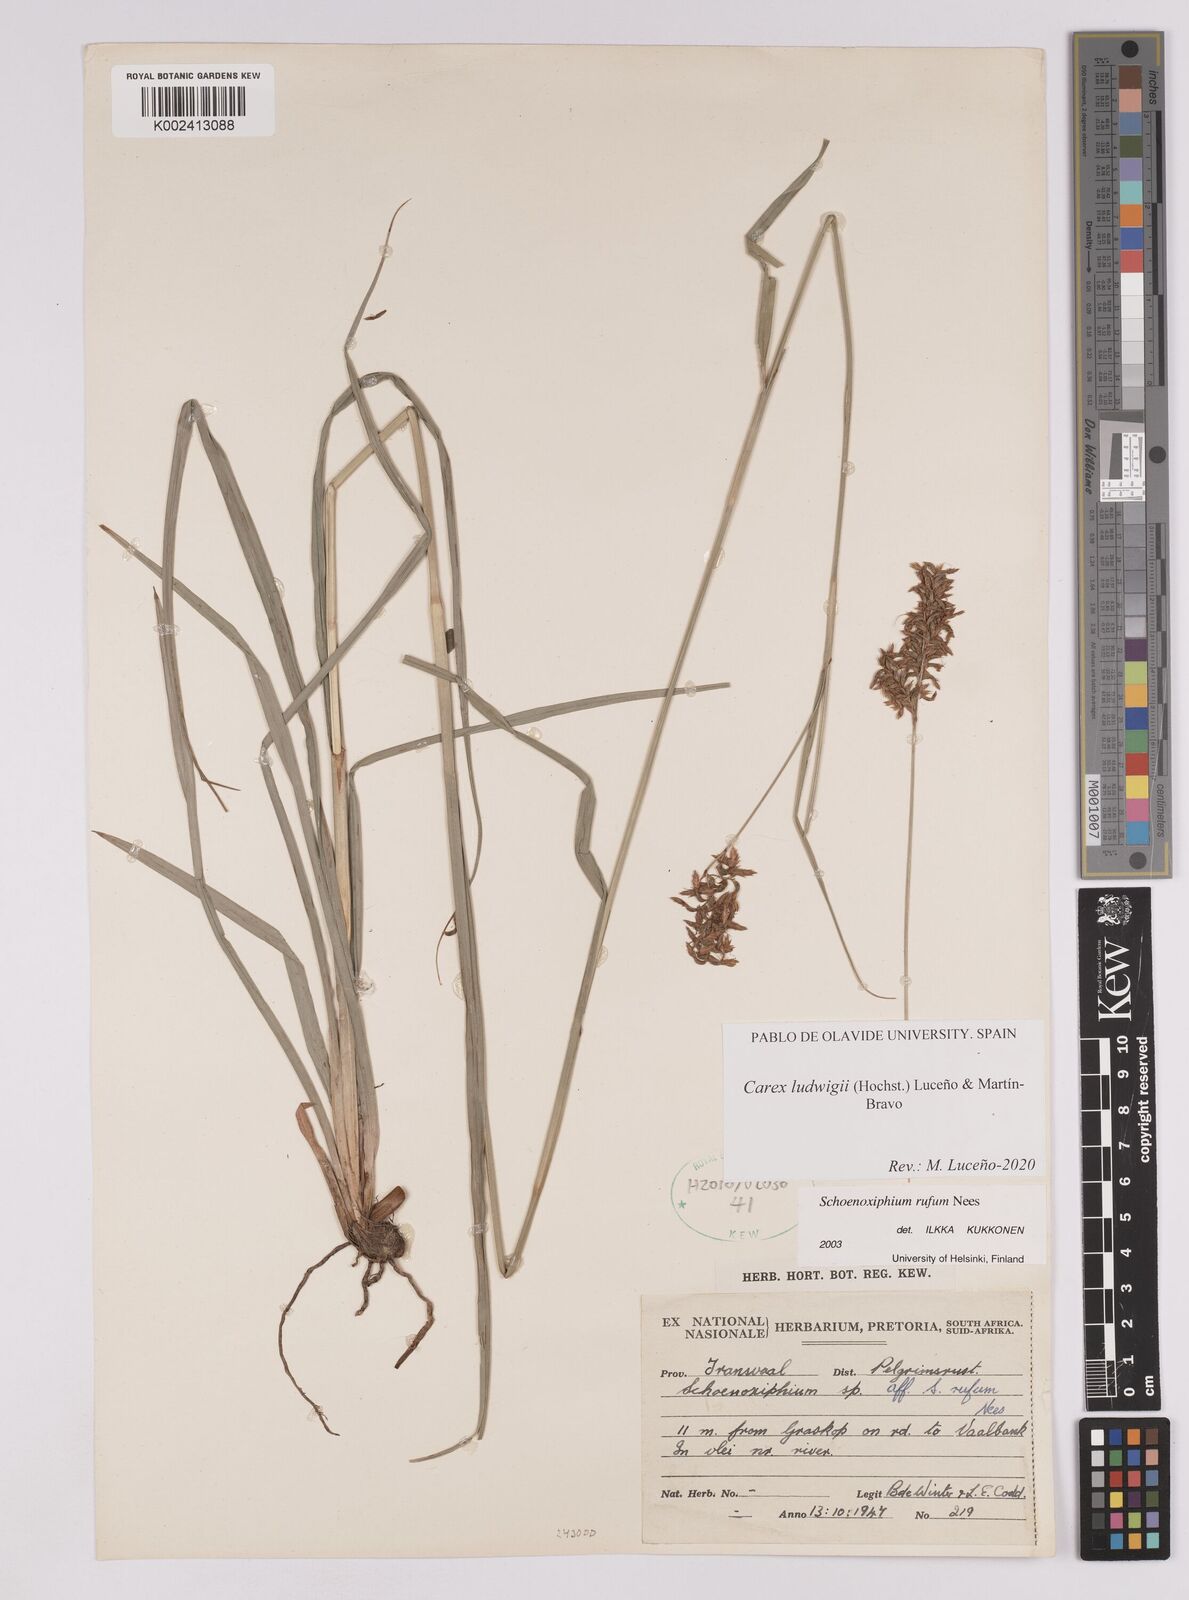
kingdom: Plantae
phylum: Tracheophyta
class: Liliopsida
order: Poales
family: Cyperaceae
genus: Carex
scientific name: Carex ludwigii
